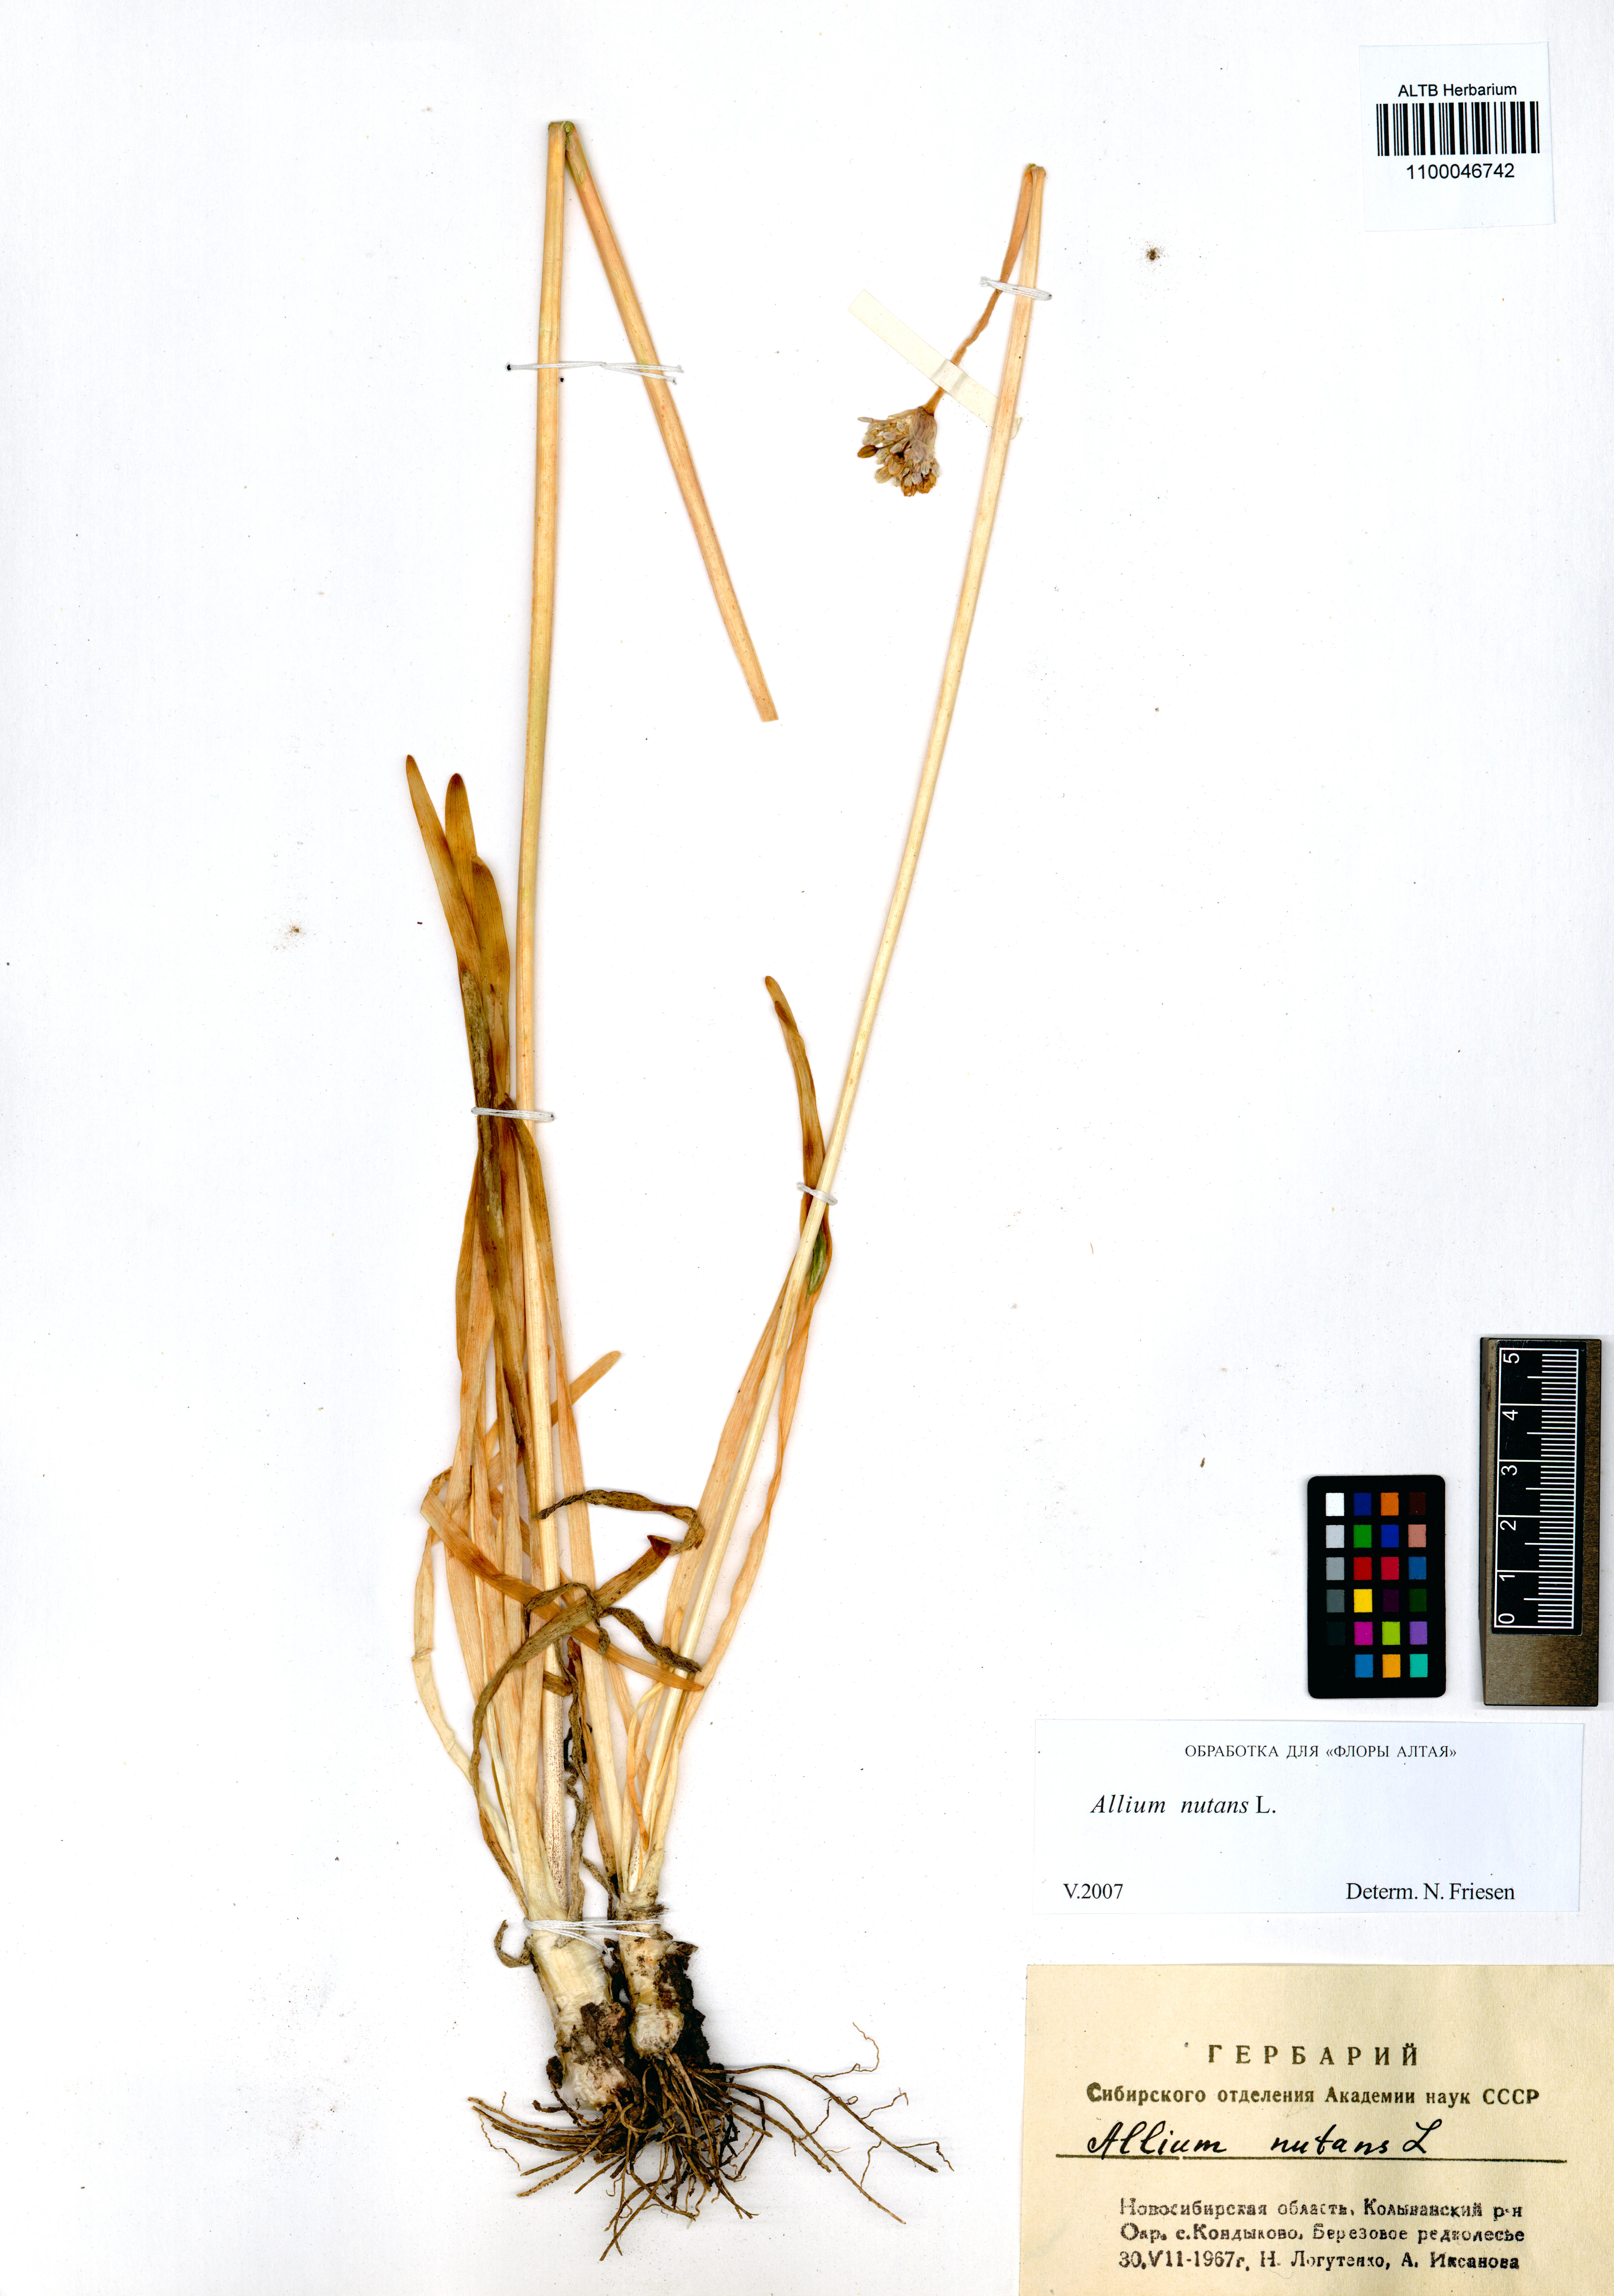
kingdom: Plantae
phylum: Tracheophyta
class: Liliopsida
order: Asparagales
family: Amaryllidaceae
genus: Allium
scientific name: Allium nutans
